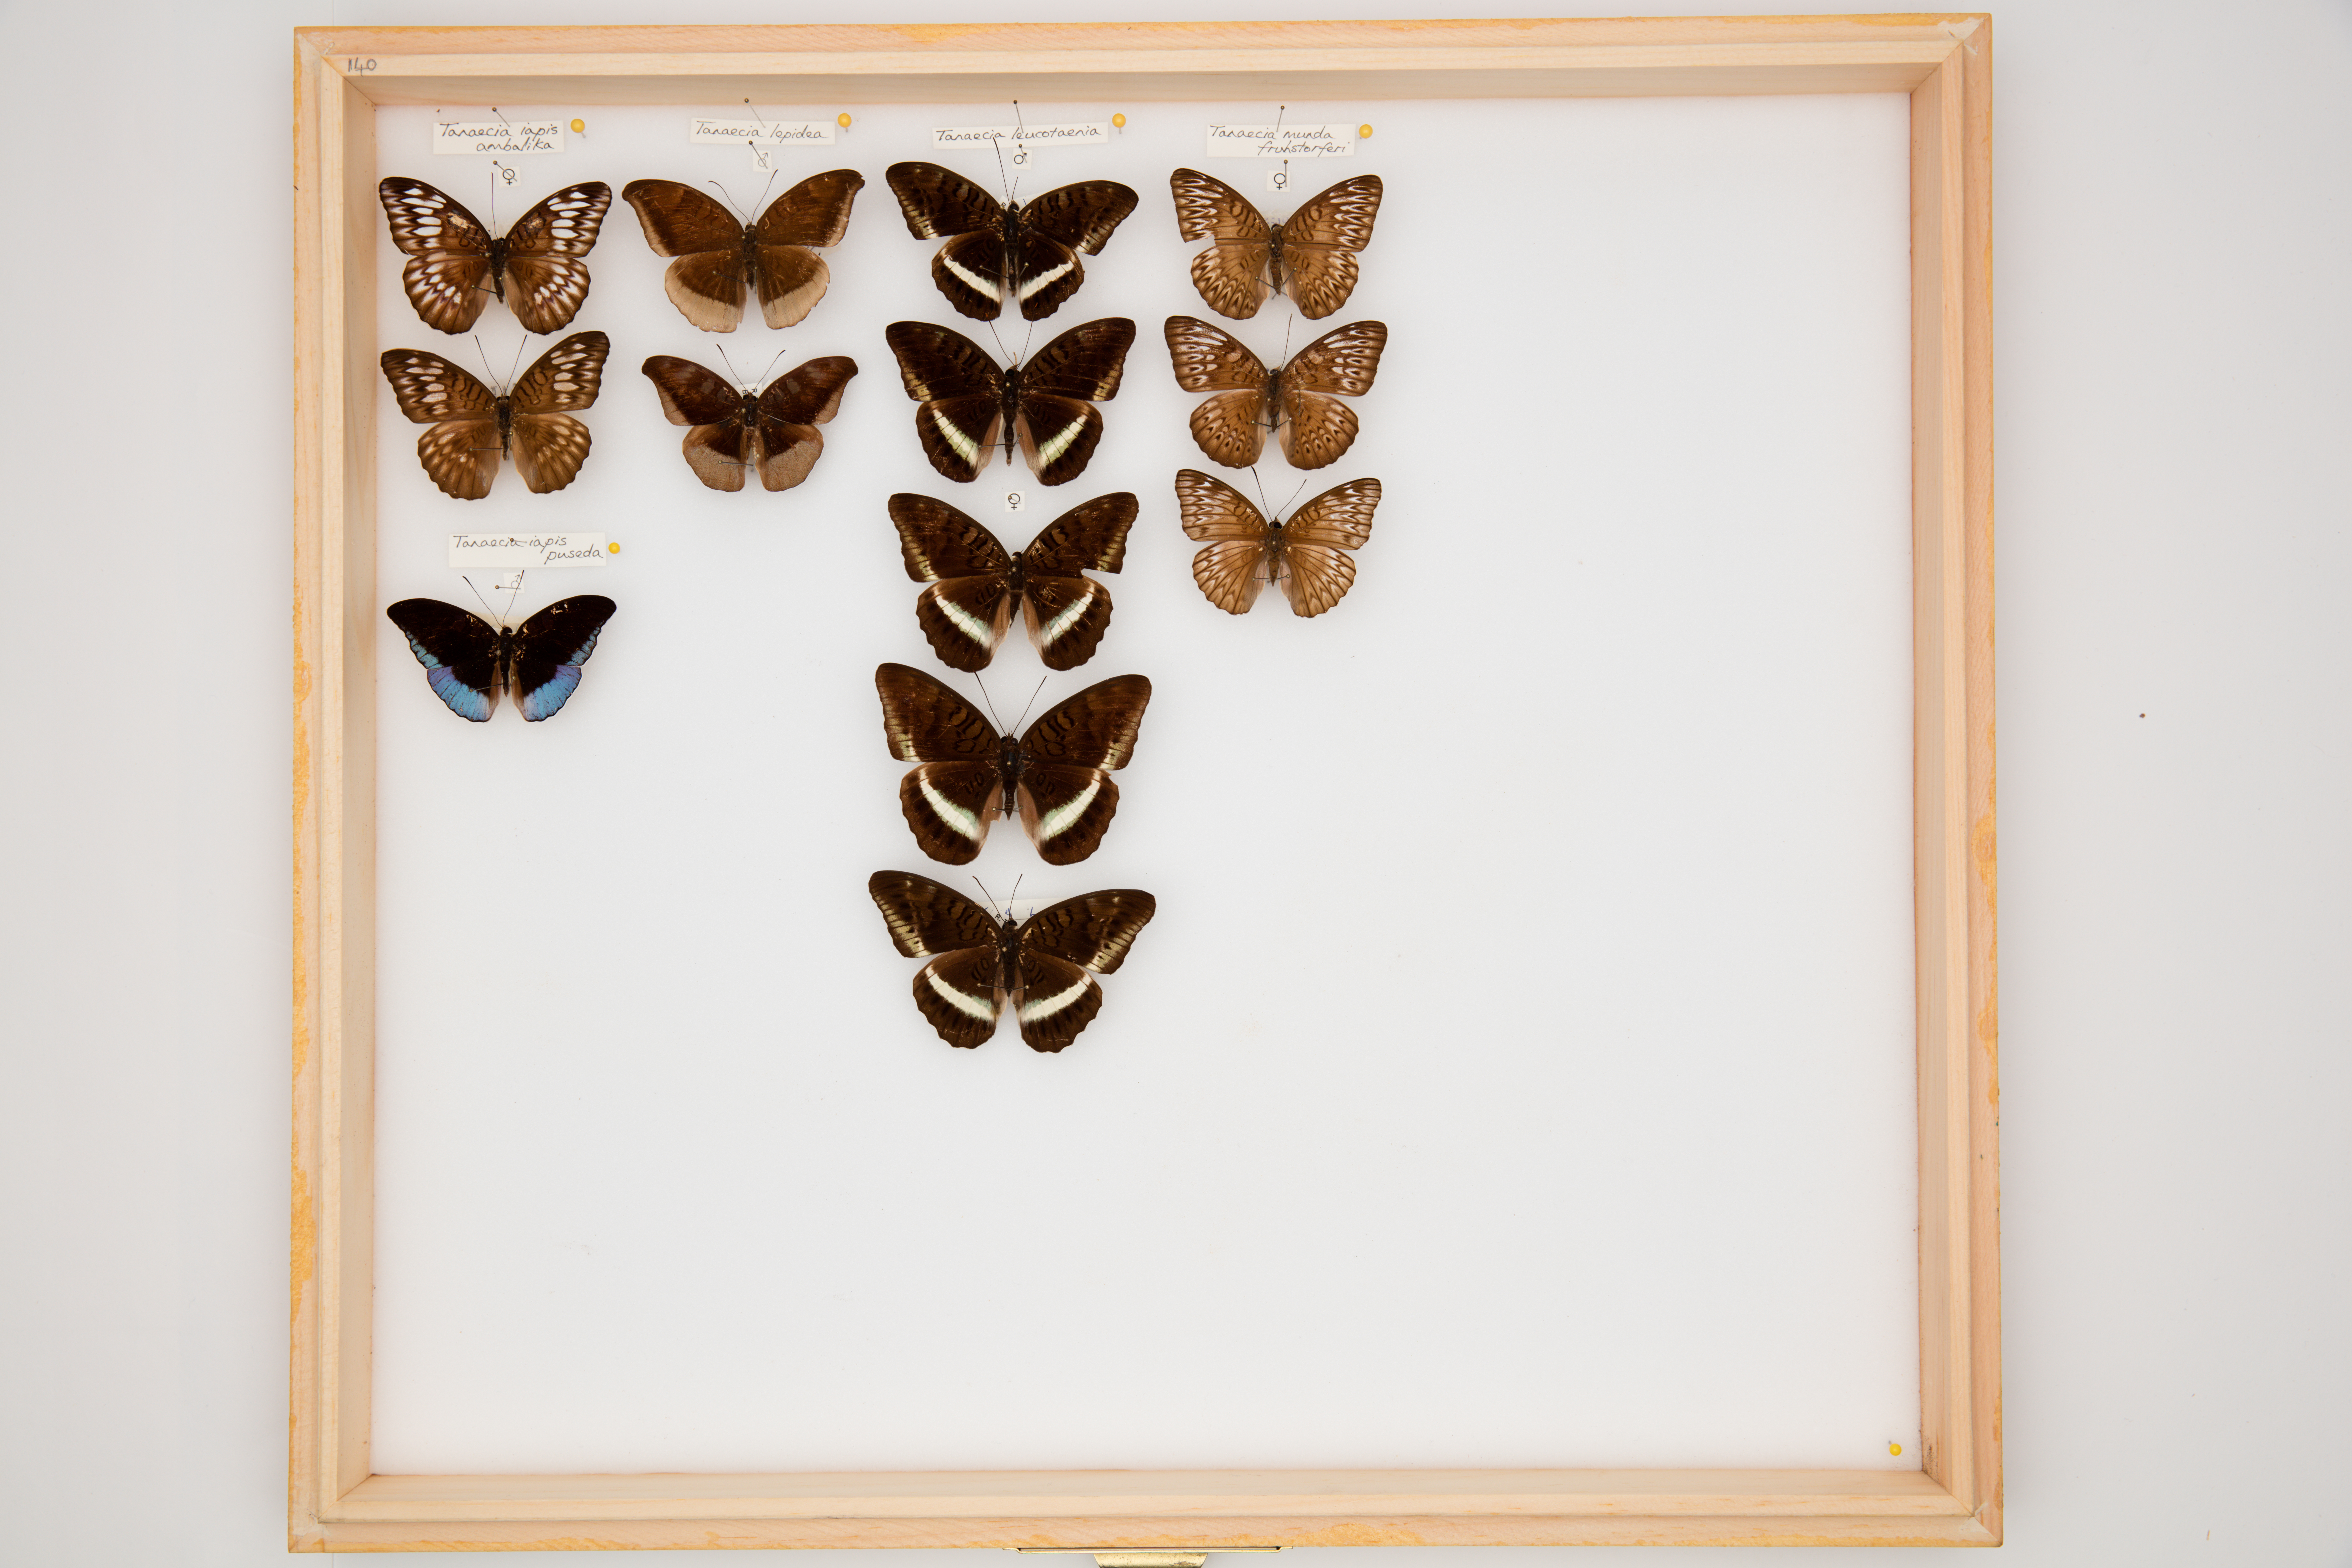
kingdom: Animalia
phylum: Arthropoda
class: Insecta
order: Lepidoptera
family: Nymphalidae
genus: Tanaecia
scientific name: Tanaecia lepidea
